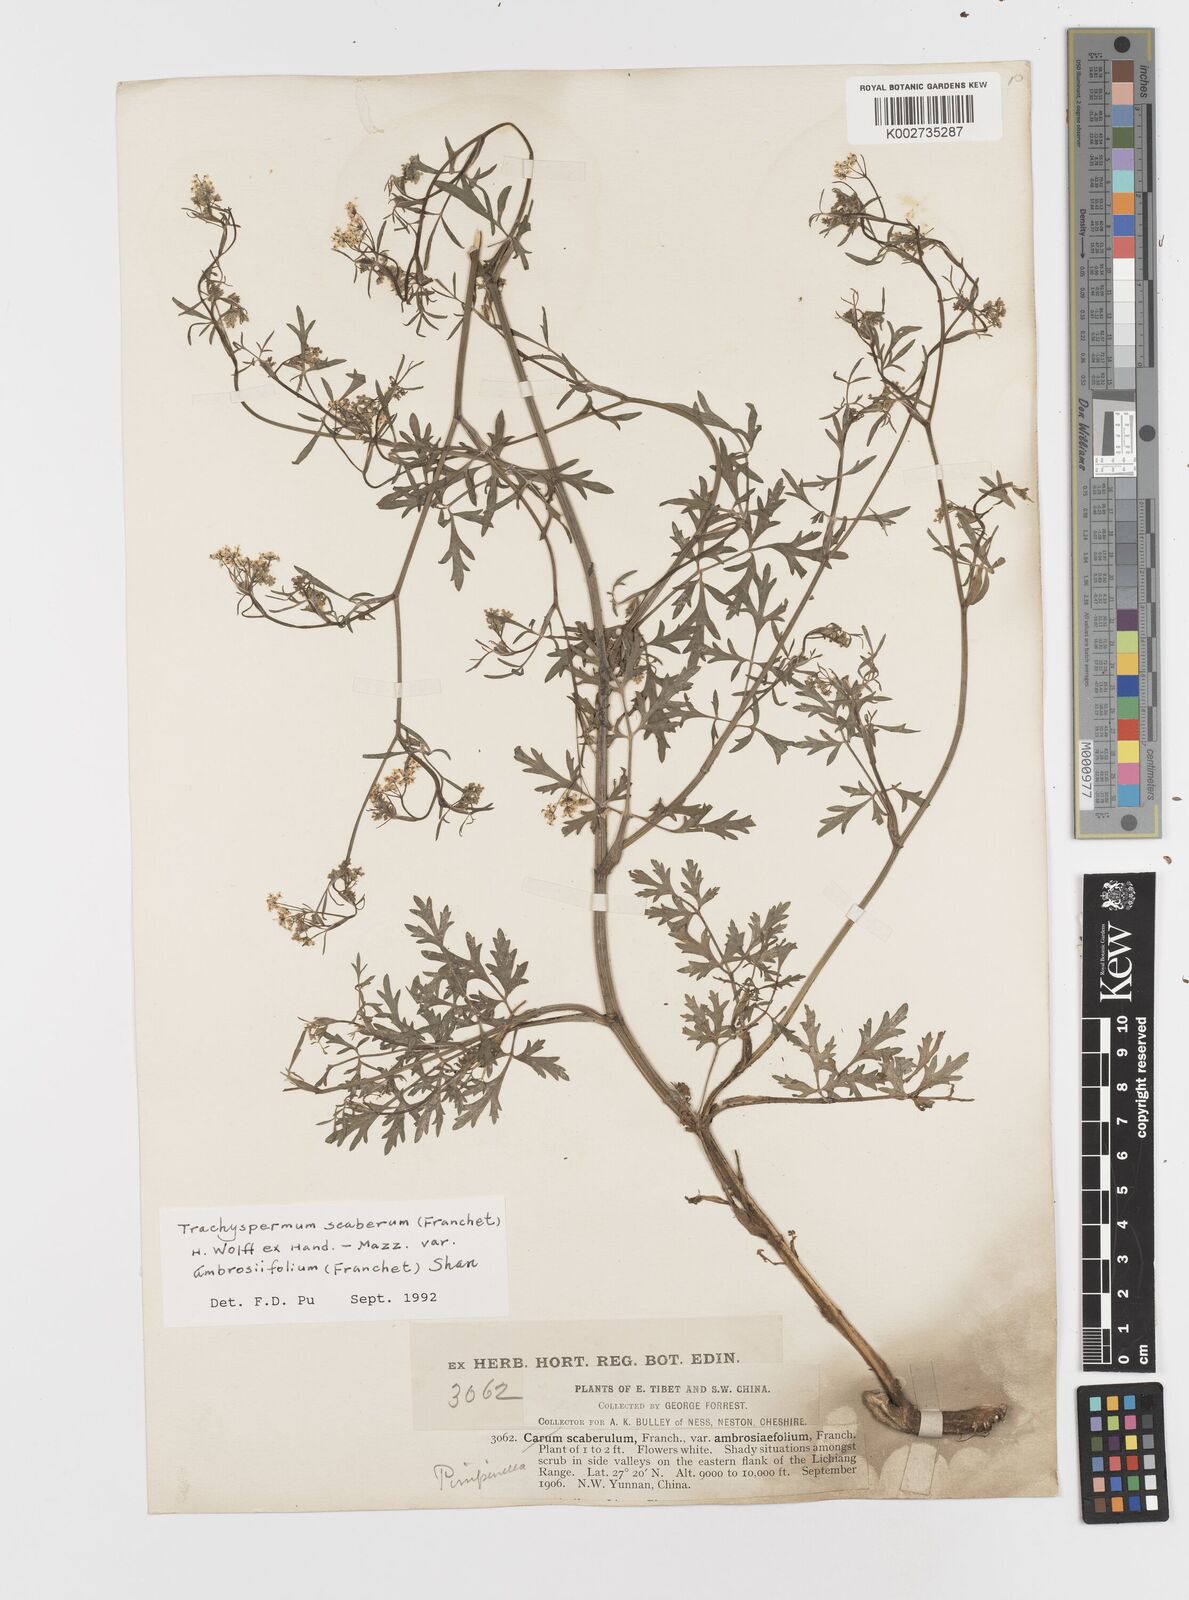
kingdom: Plantae
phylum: Tracheophyta
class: Magnoliopsida
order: Apiales
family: Apiaceae
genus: Pimpinella
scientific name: Pimpinella scaberula
